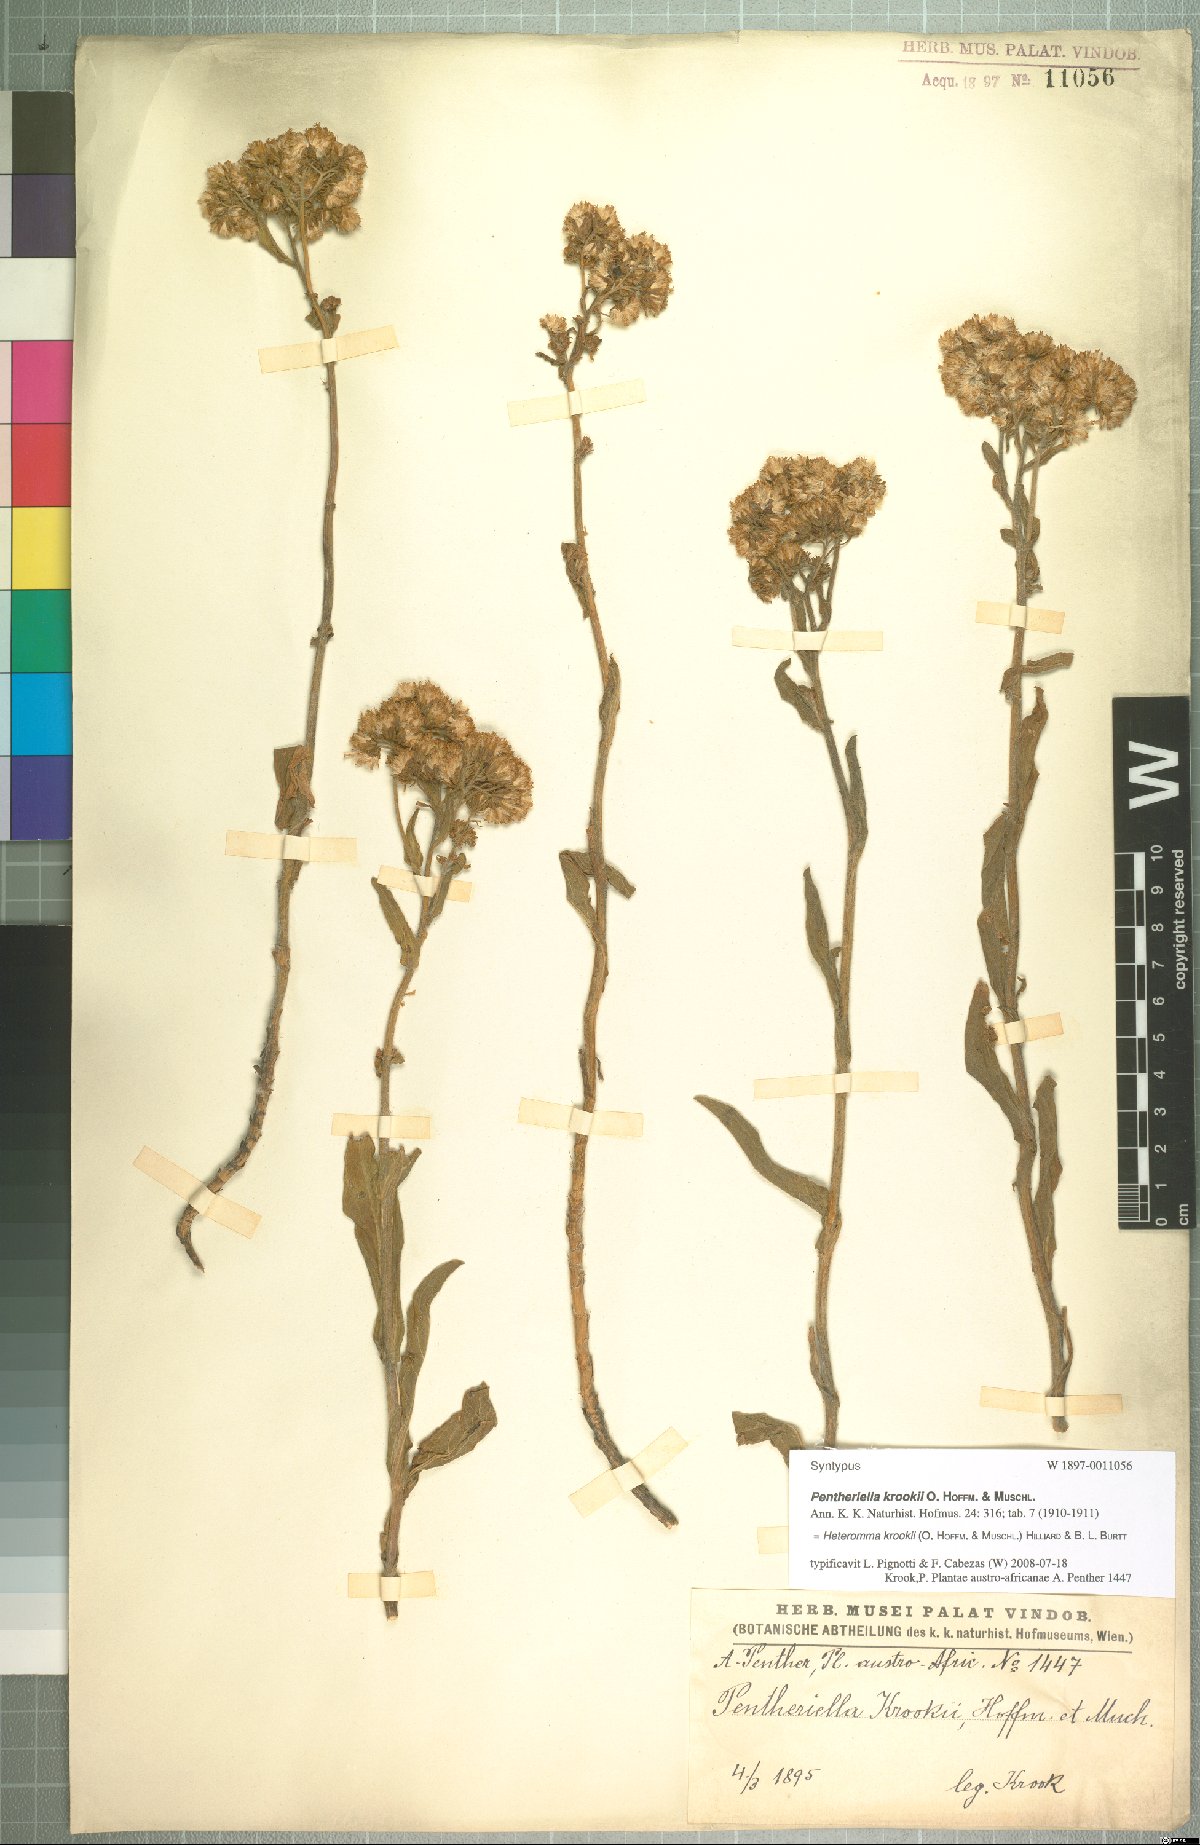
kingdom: Plantae
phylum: Tracheophyta
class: Magnoliopsida
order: Asterales
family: Asteraceae
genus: Heteromma
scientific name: Heteromma krookii
